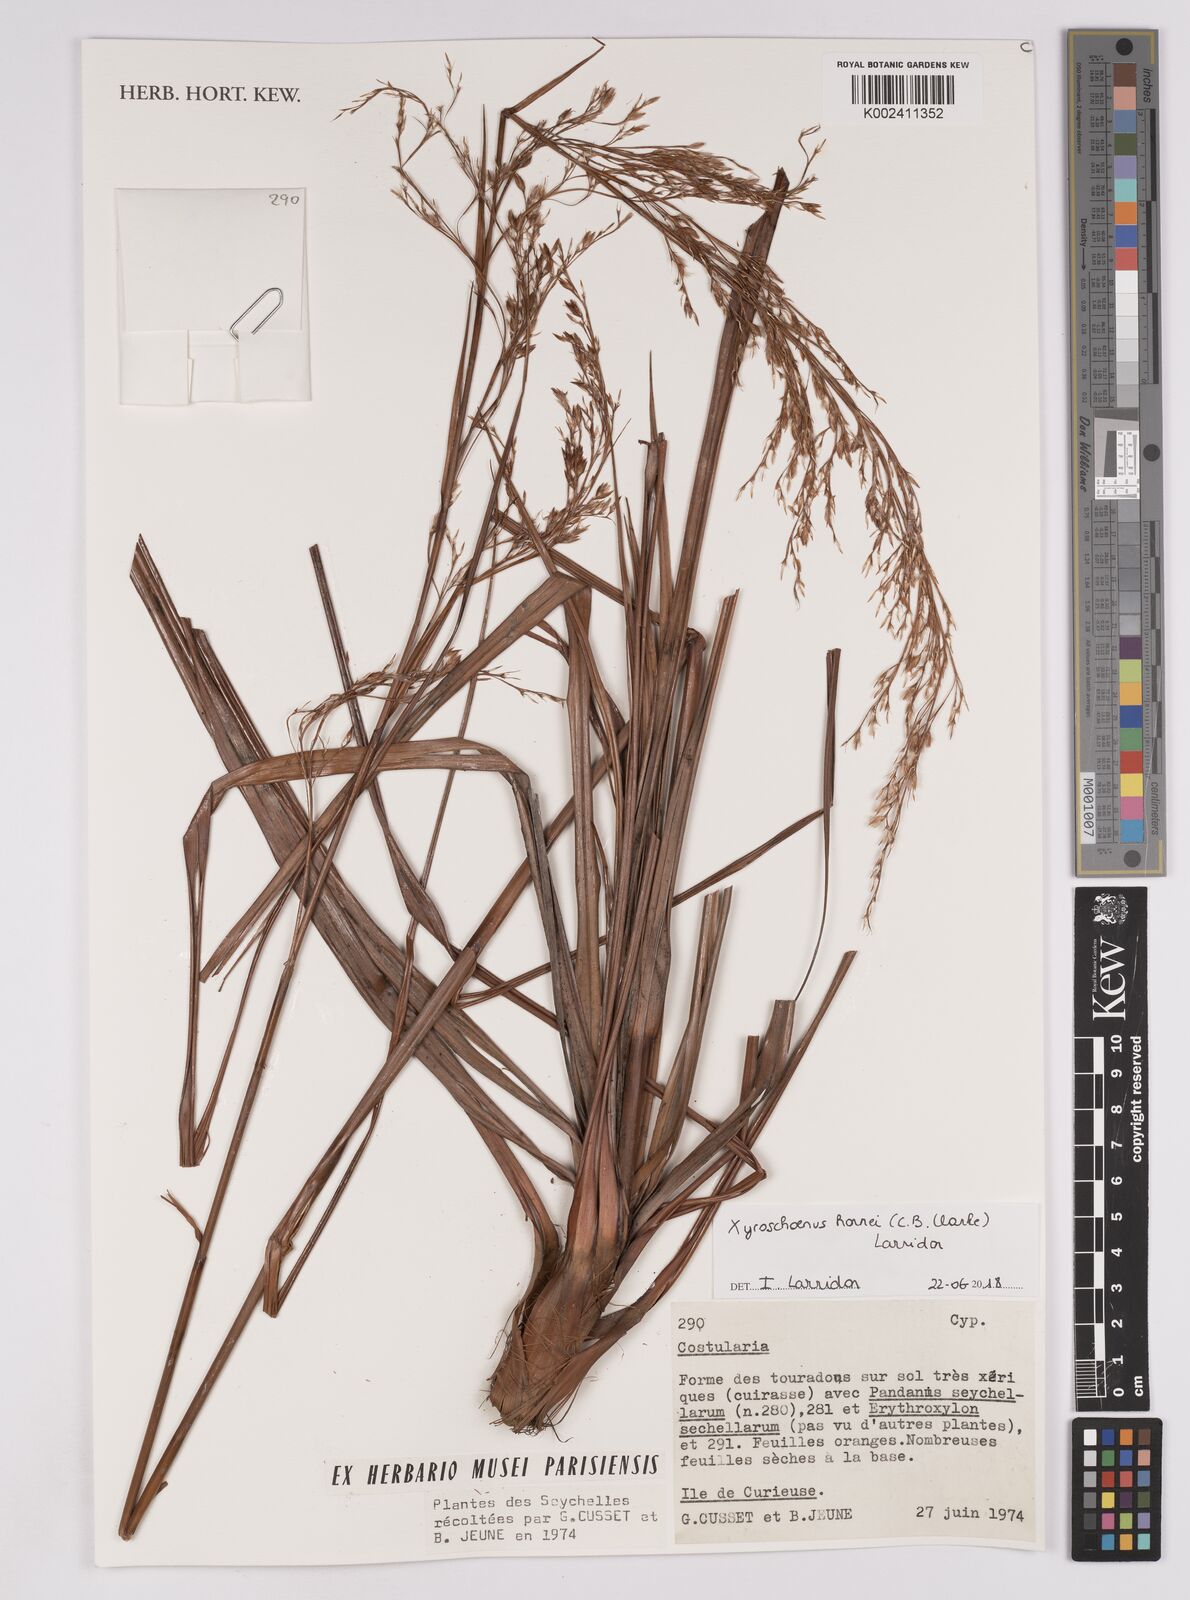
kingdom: Plantae
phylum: Tracheophyta
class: Liliopsida
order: Poales
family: Cyperaceae
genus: Xyroschoenus
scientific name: Xyroschoenus hornei
